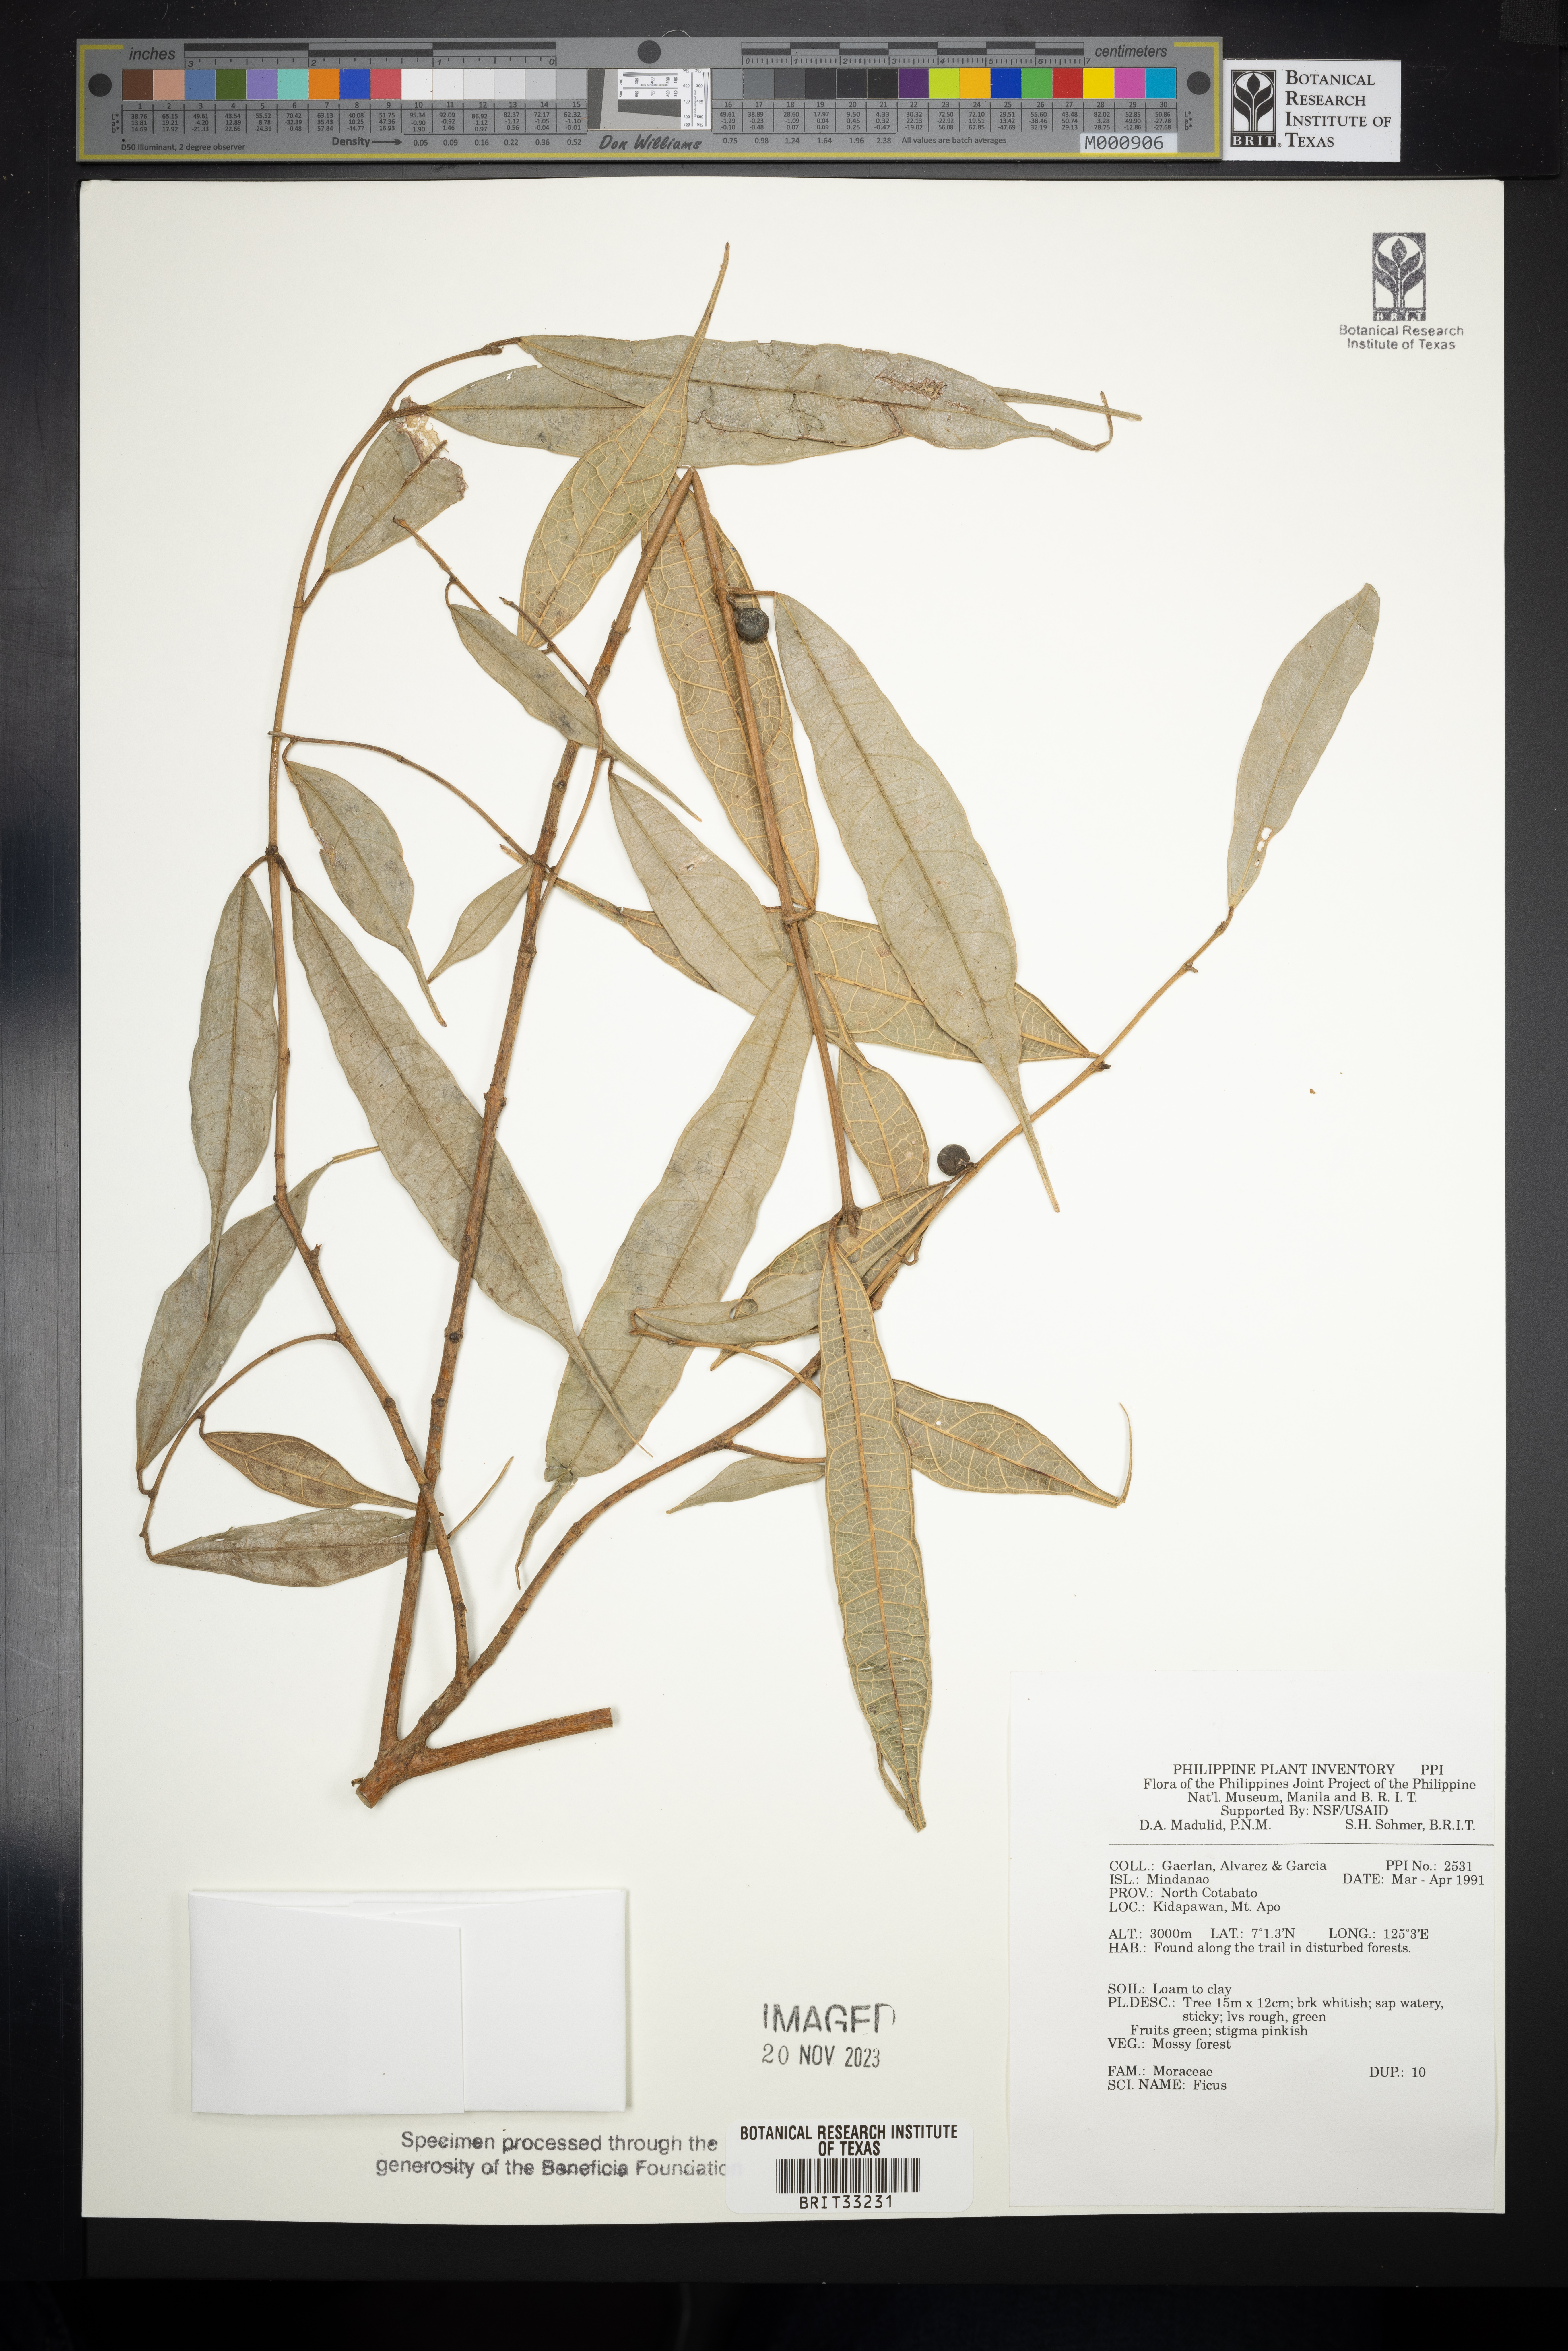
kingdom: Plantae
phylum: Tracheophyta
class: Magnoliopsida
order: Rosales
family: Moraceae
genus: Ficus
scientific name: Ficus
